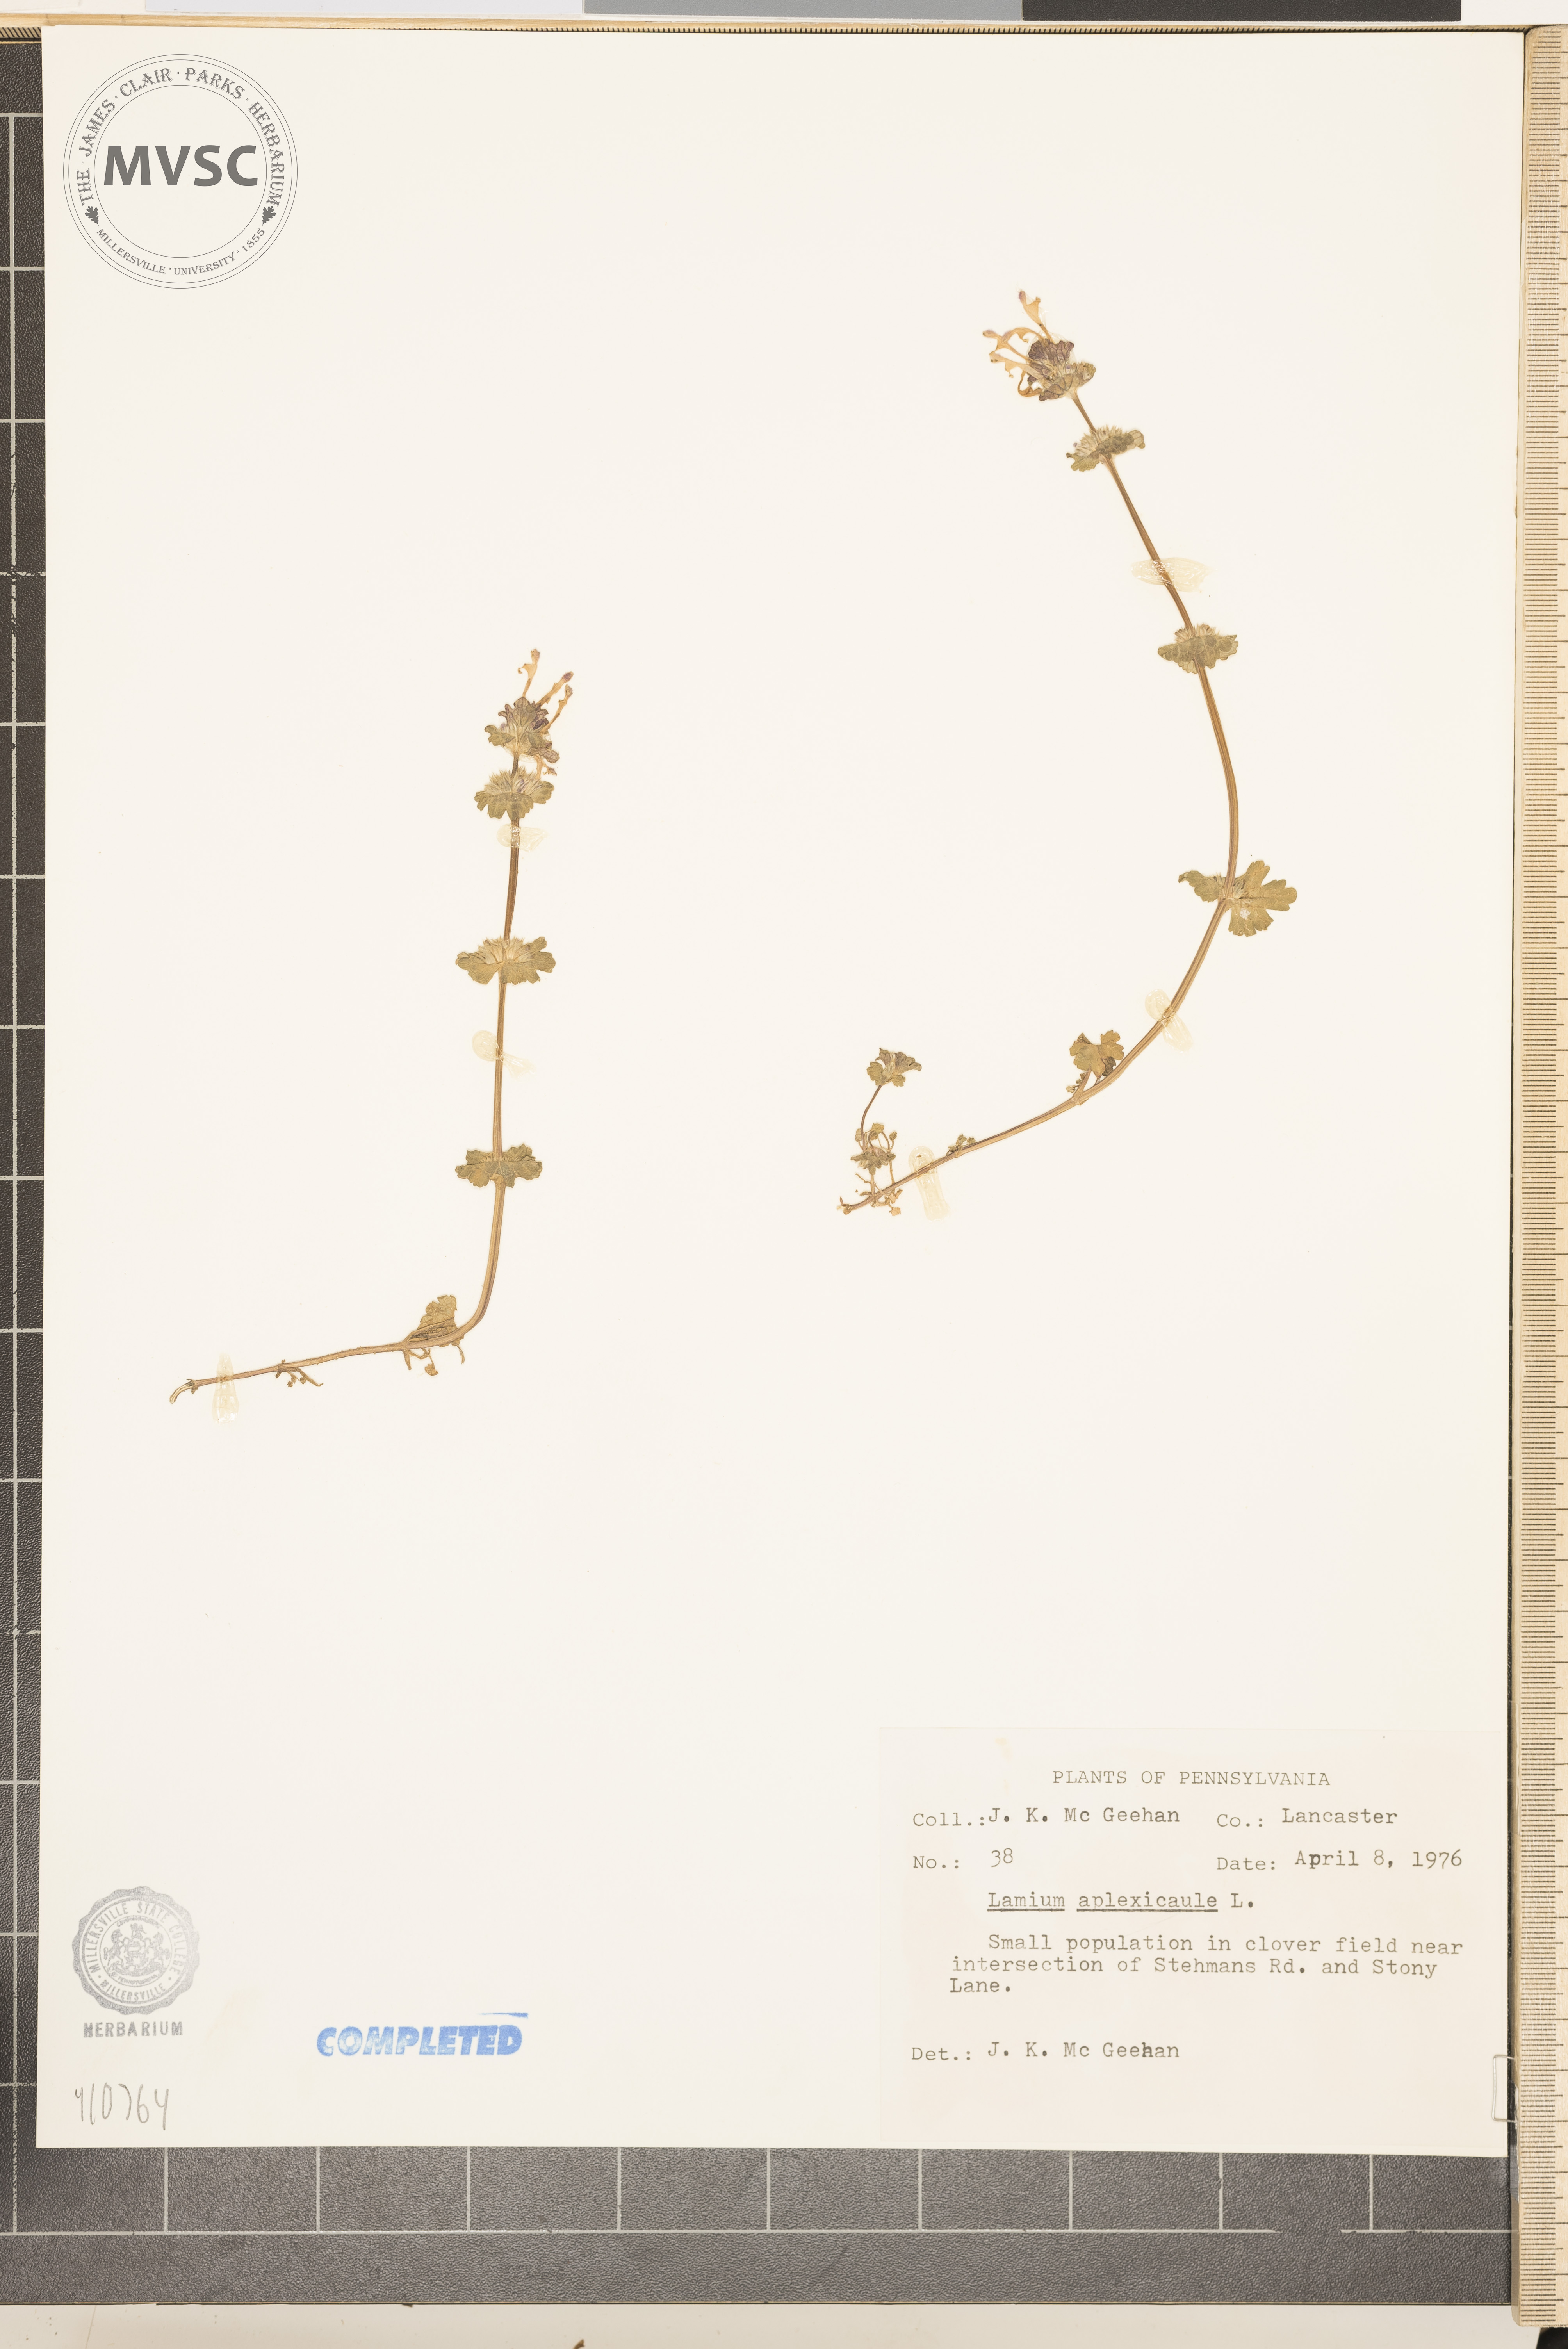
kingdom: Plantae
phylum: Tracheophyta
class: Magnoliopsida
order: Lamiales
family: Lamiaceae
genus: Lamium
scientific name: Lamium amplexicaule
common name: henbit
